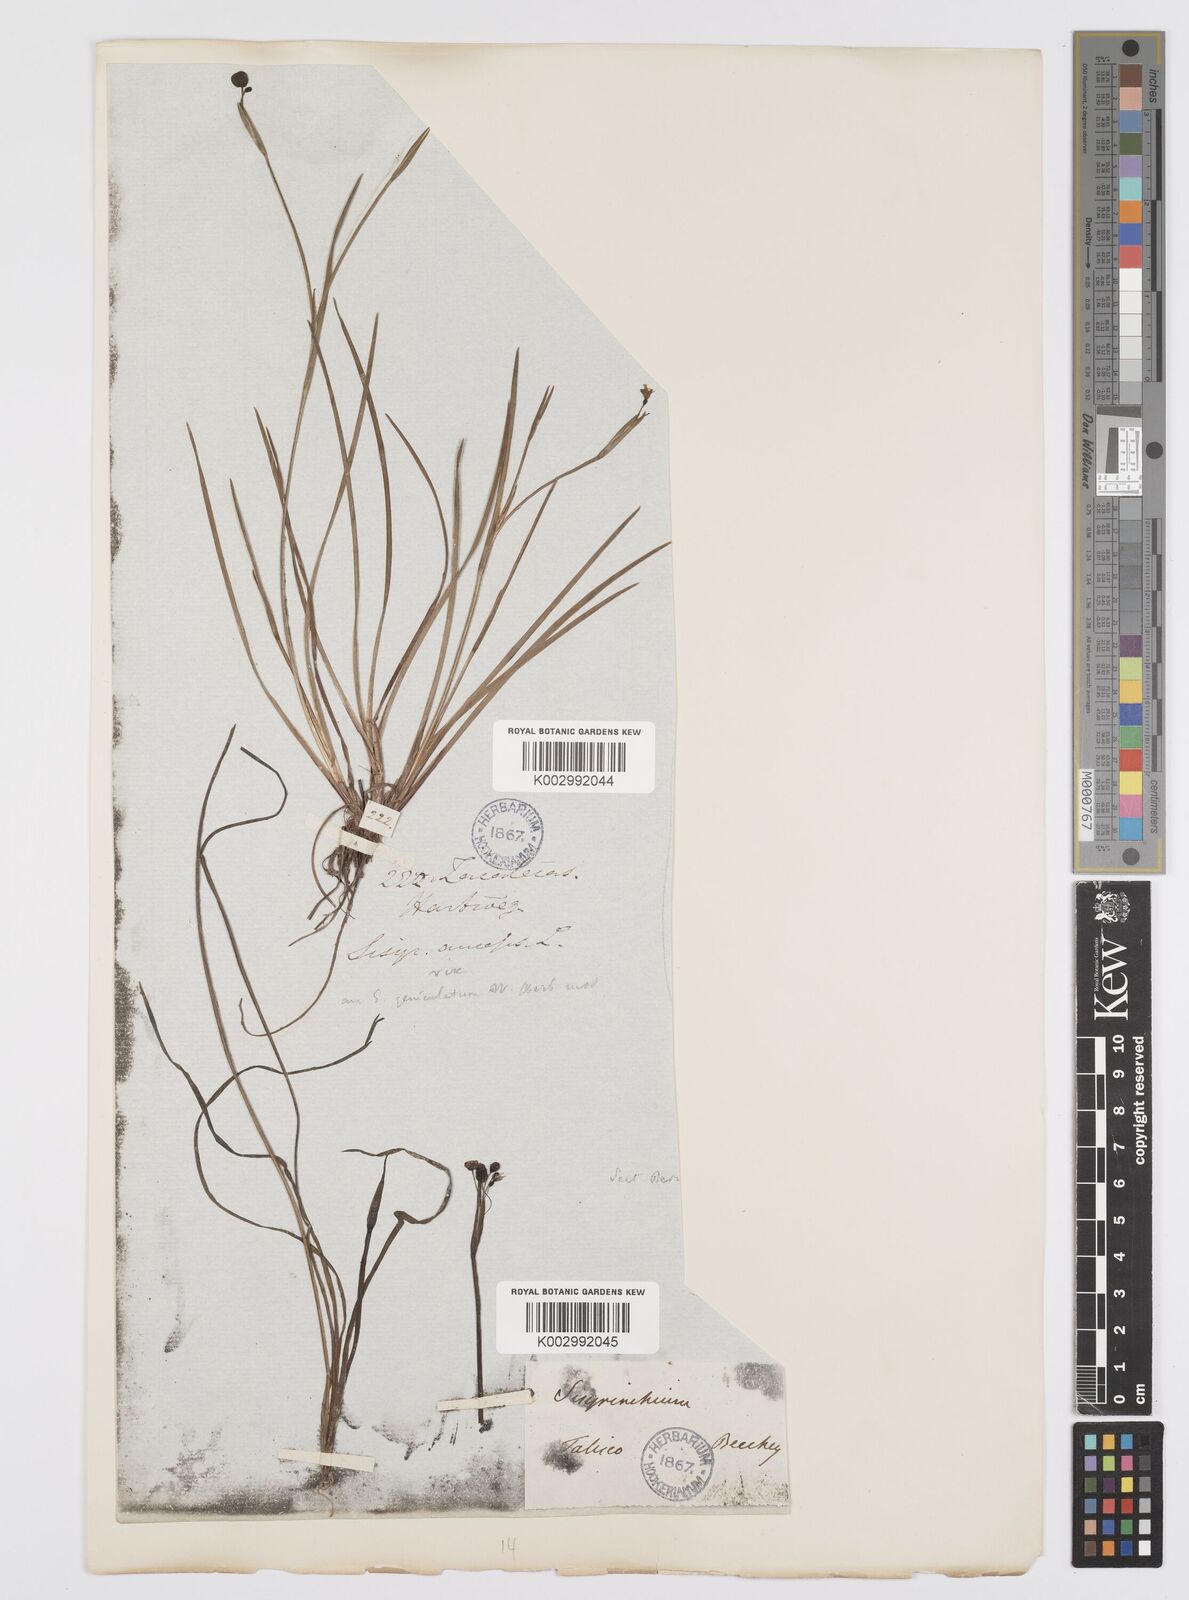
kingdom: Plantae
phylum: Tracheophyta
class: Liliopsida
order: Asparagales
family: Iridaceae
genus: Sisyrinchium
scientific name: Sisyrinchium bermudiana
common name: Blue-eyed-grass
